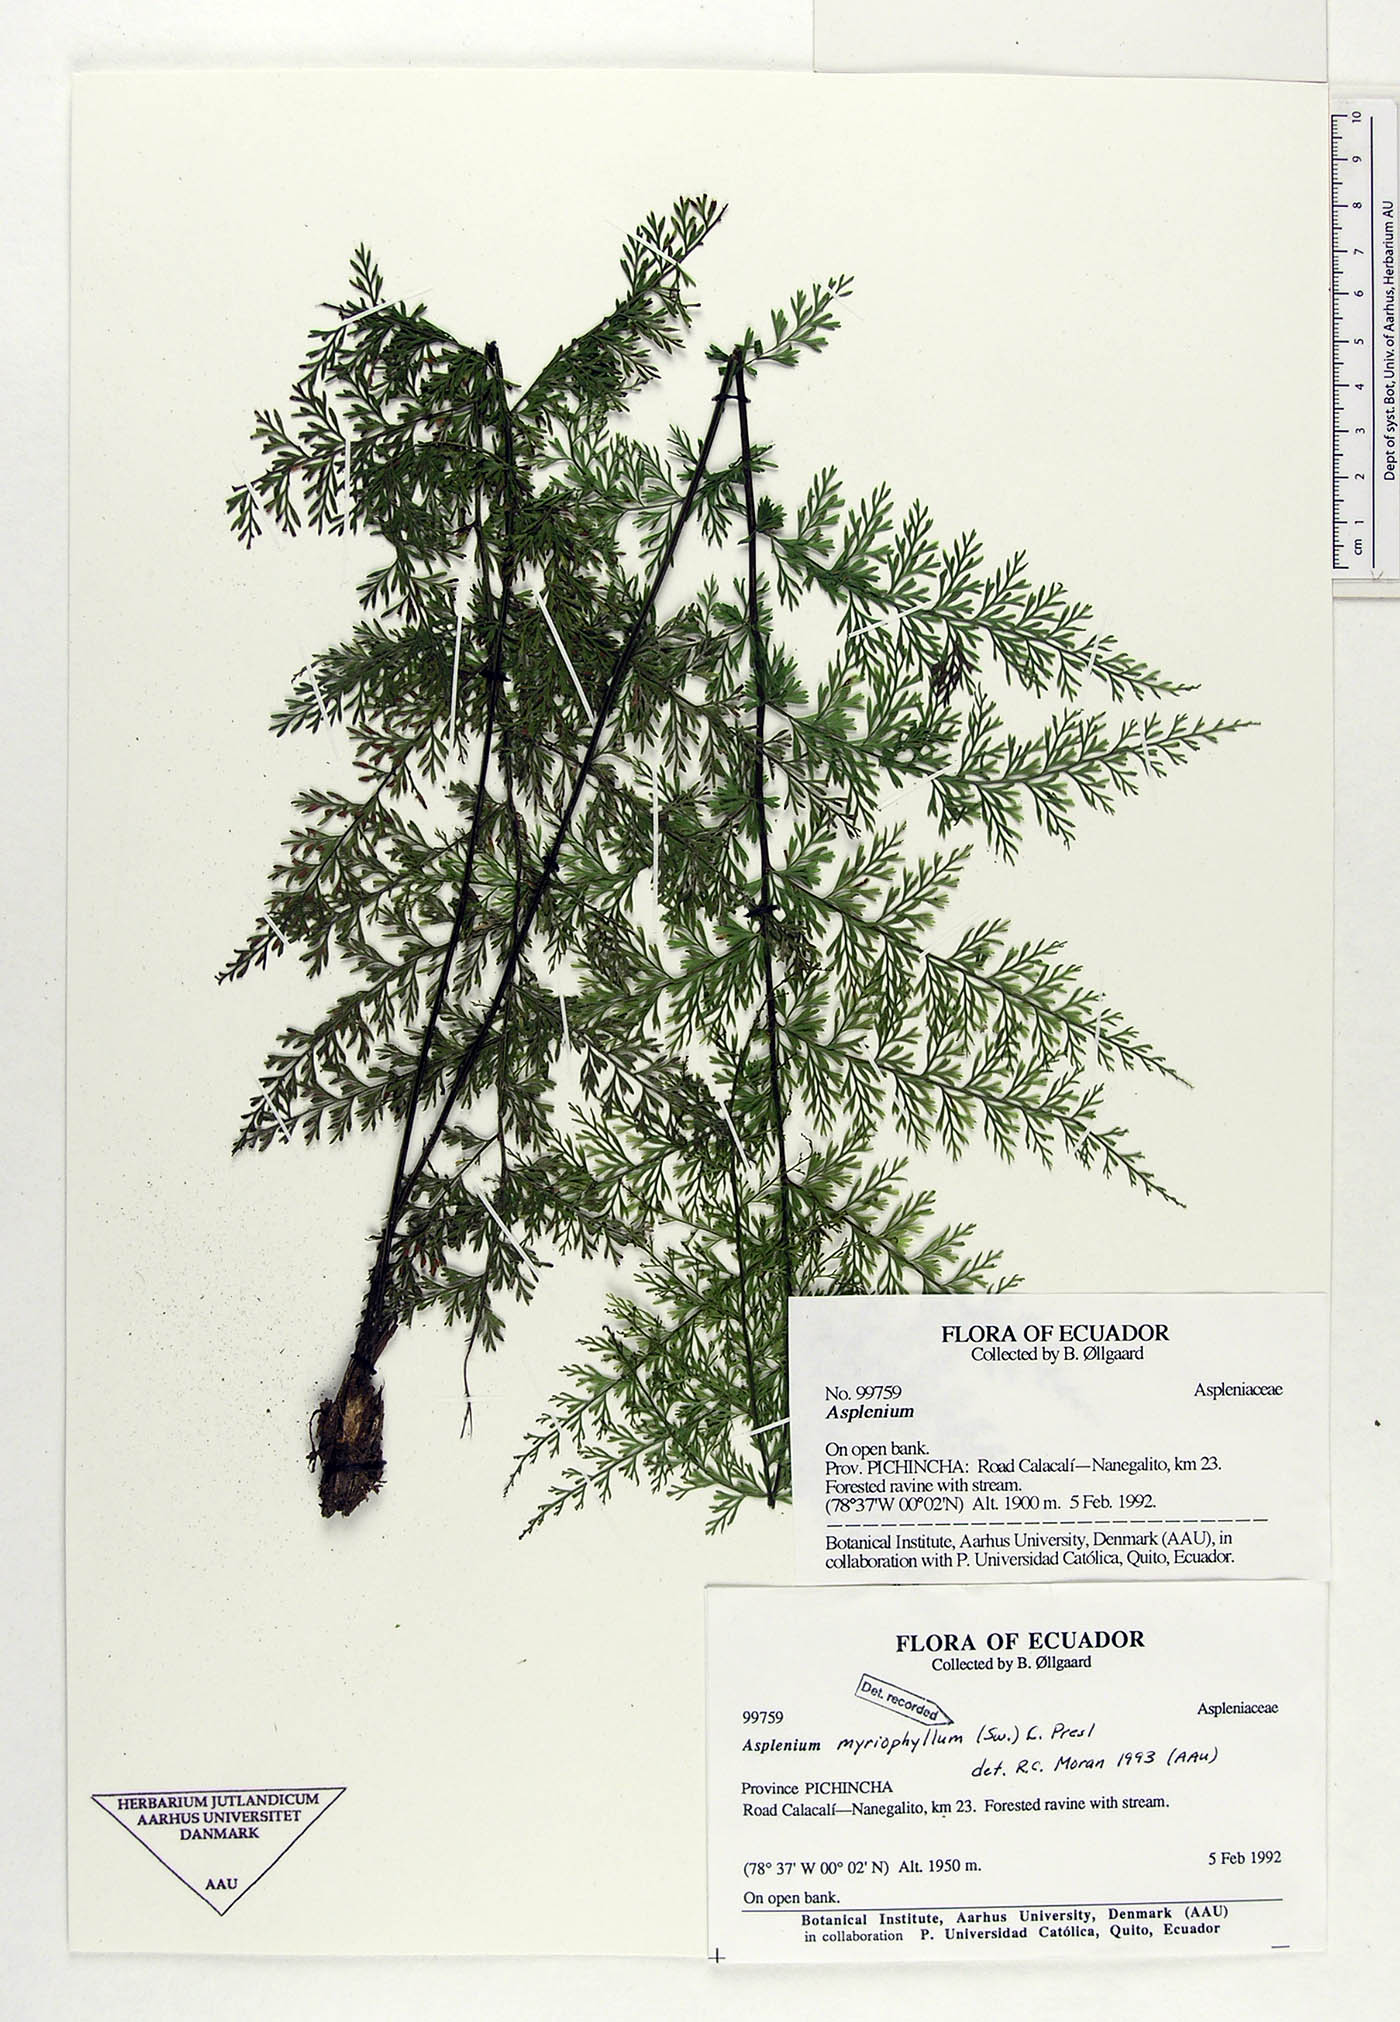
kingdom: Plantae
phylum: Tracheophyta
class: Polypodiopsida
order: Polypodiales
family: Aspleniaceae
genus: Asplenium
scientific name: Asplenium myriophyllum
